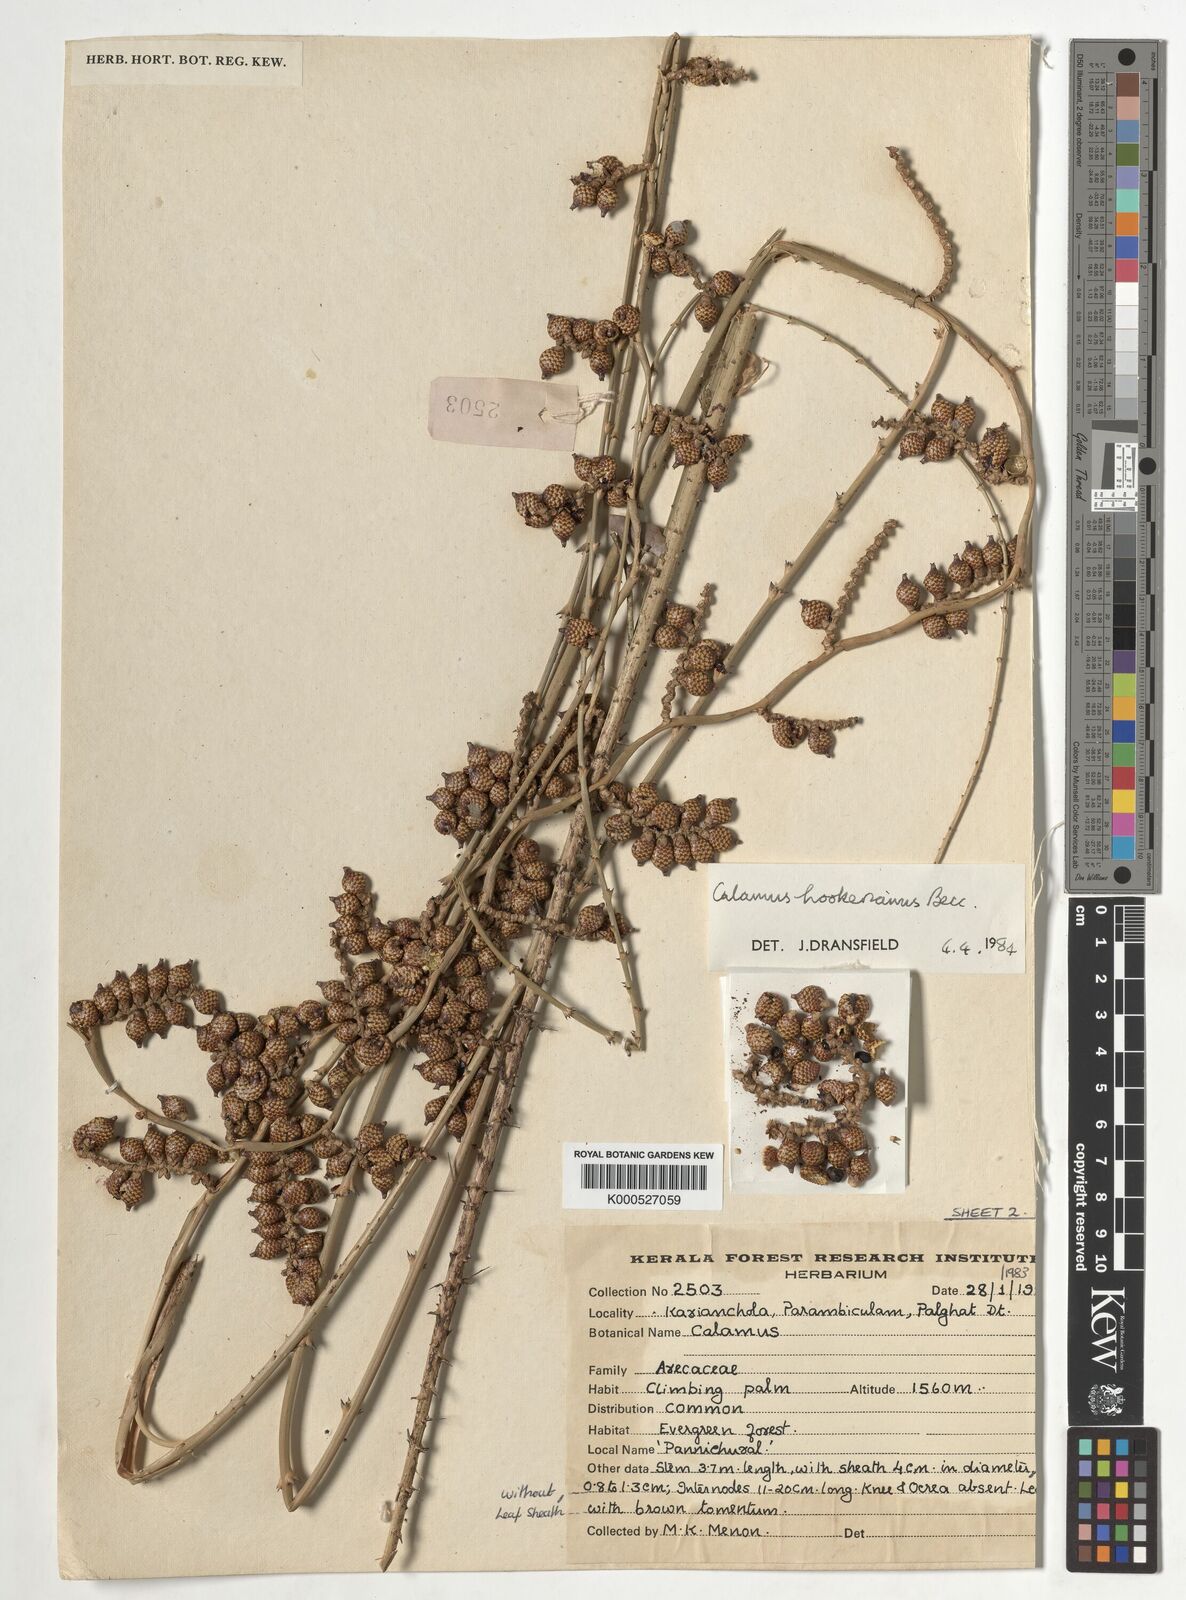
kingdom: Plantae
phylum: Tracheophyta
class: Liliopsida
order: Arecales
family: Arecaceae
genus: Calamus
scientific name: Calamus hookerianus
